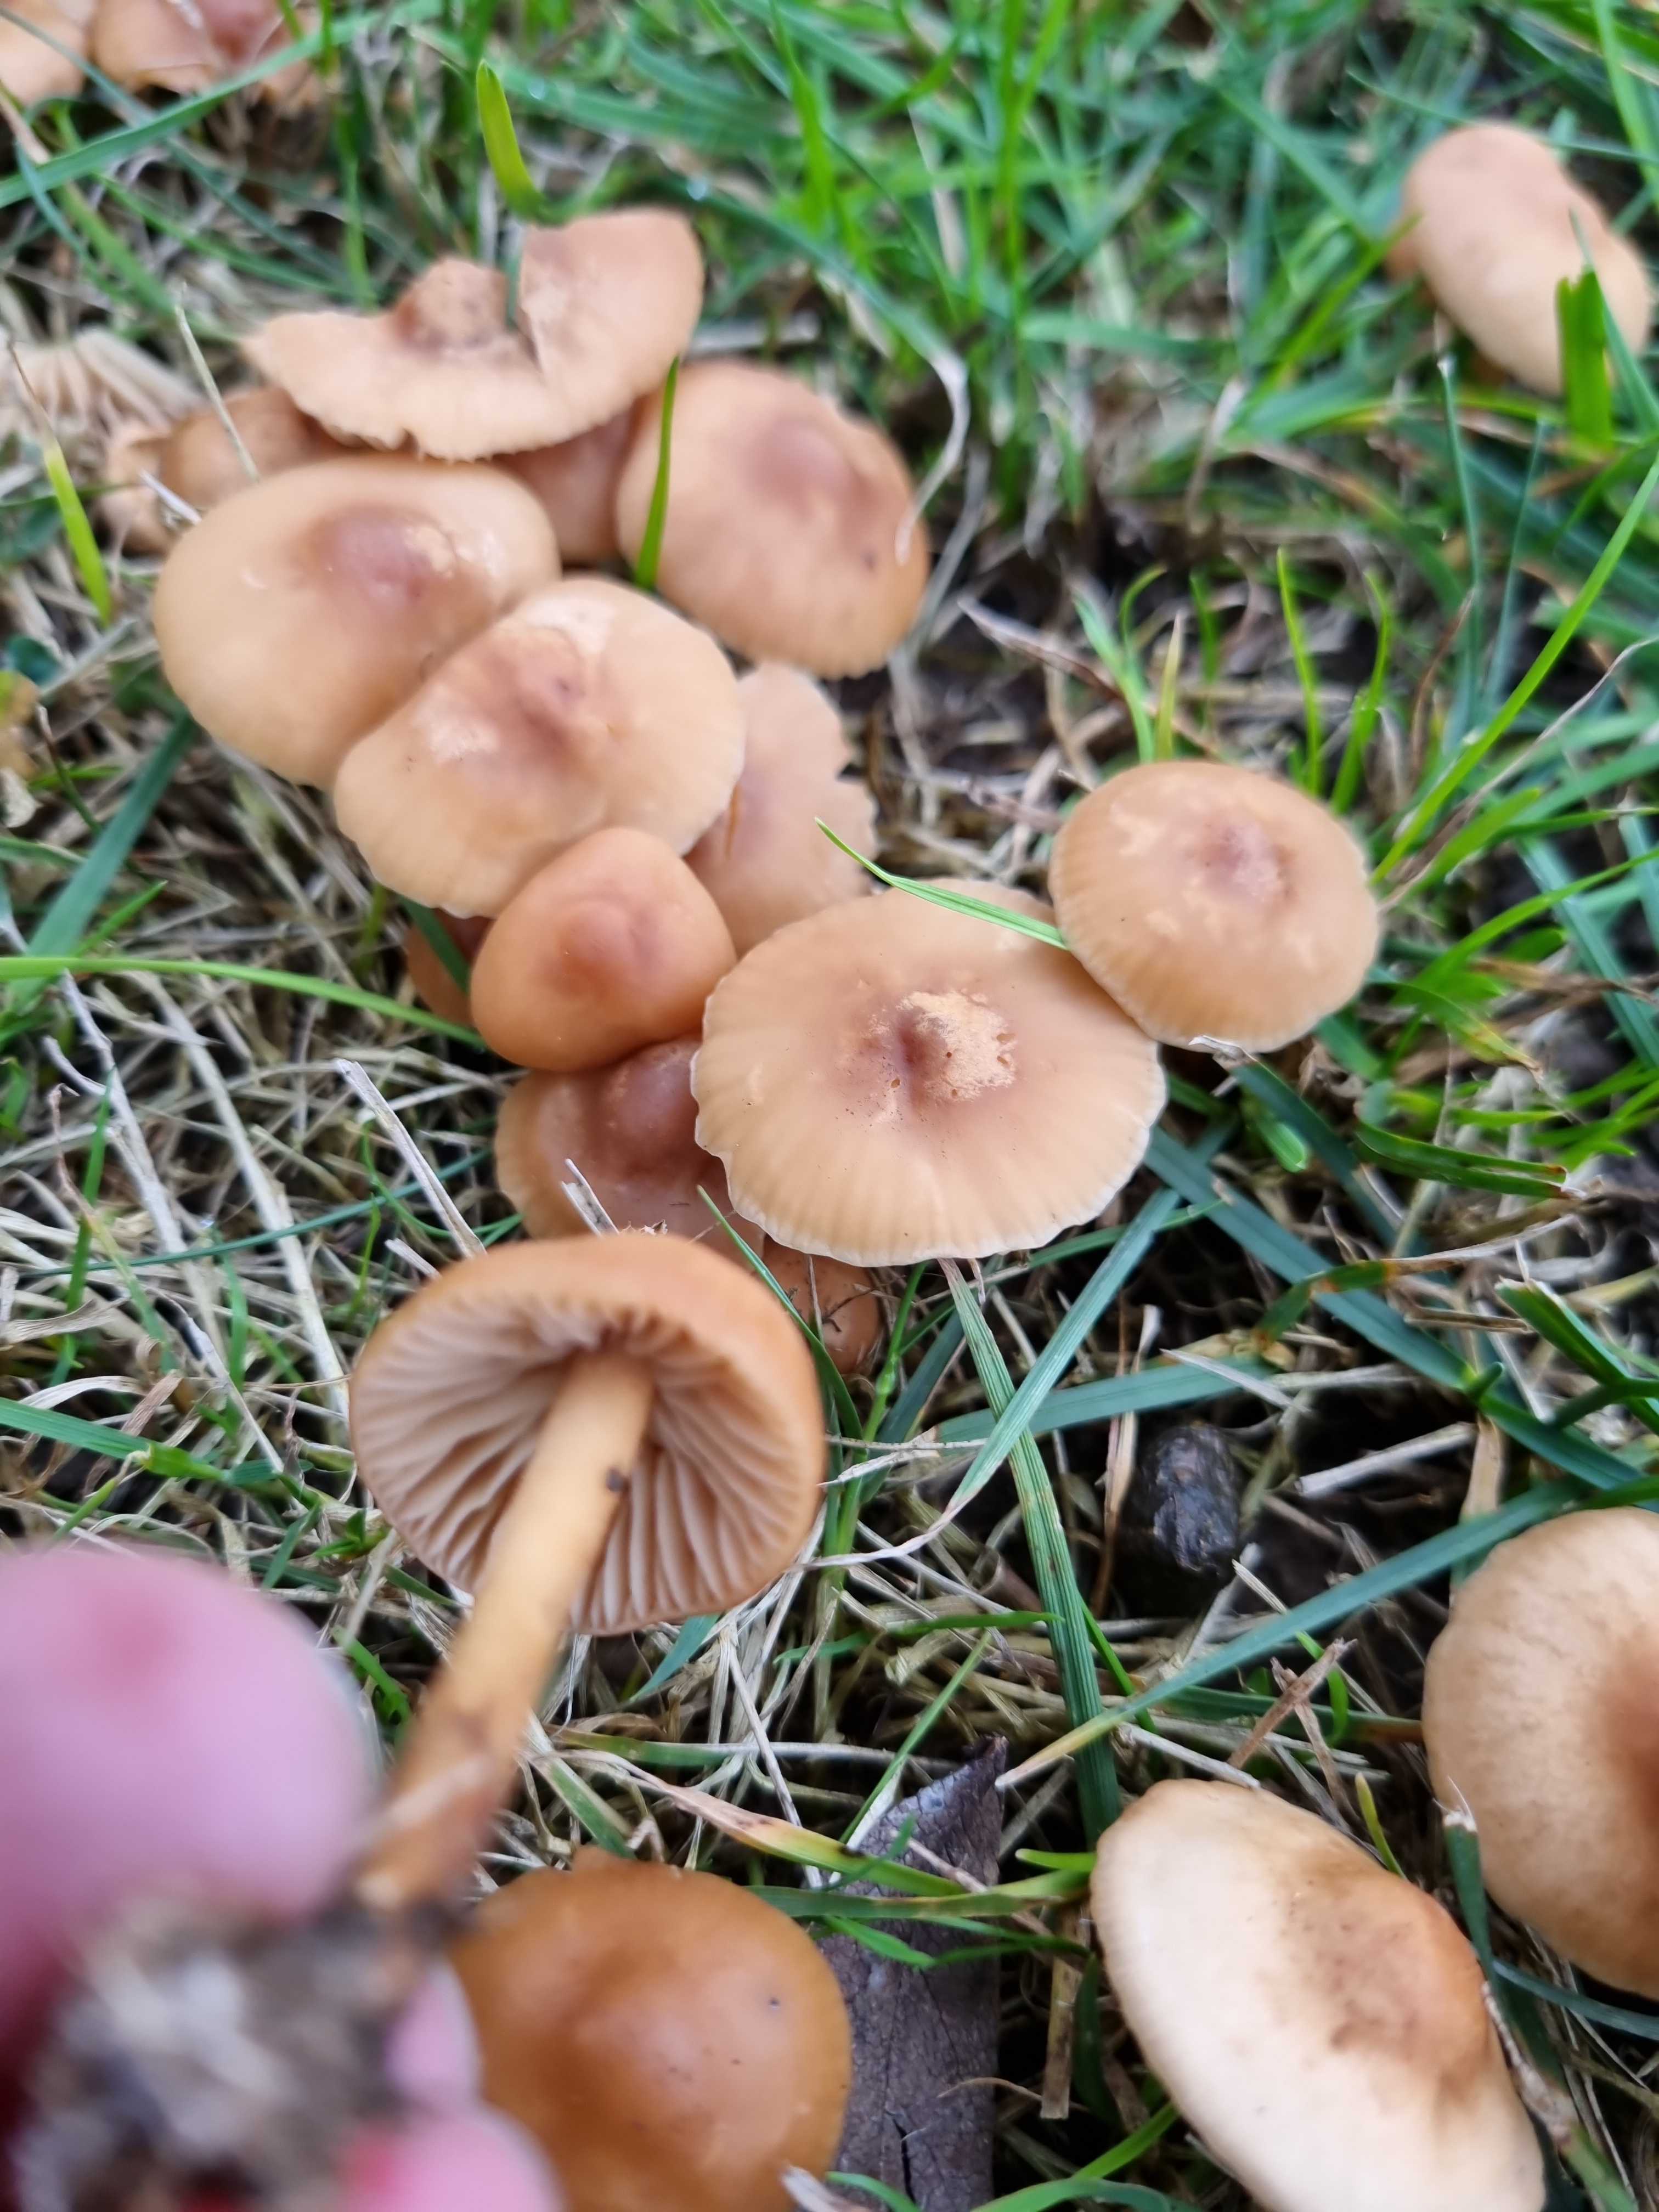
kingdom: Fungi
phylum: Basidiomycota
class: Agaricomycetes
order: Agaricales
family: Marasmiaceae
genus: Marasmius
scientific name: Marasmius oreades
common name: elledans-bruskhat
